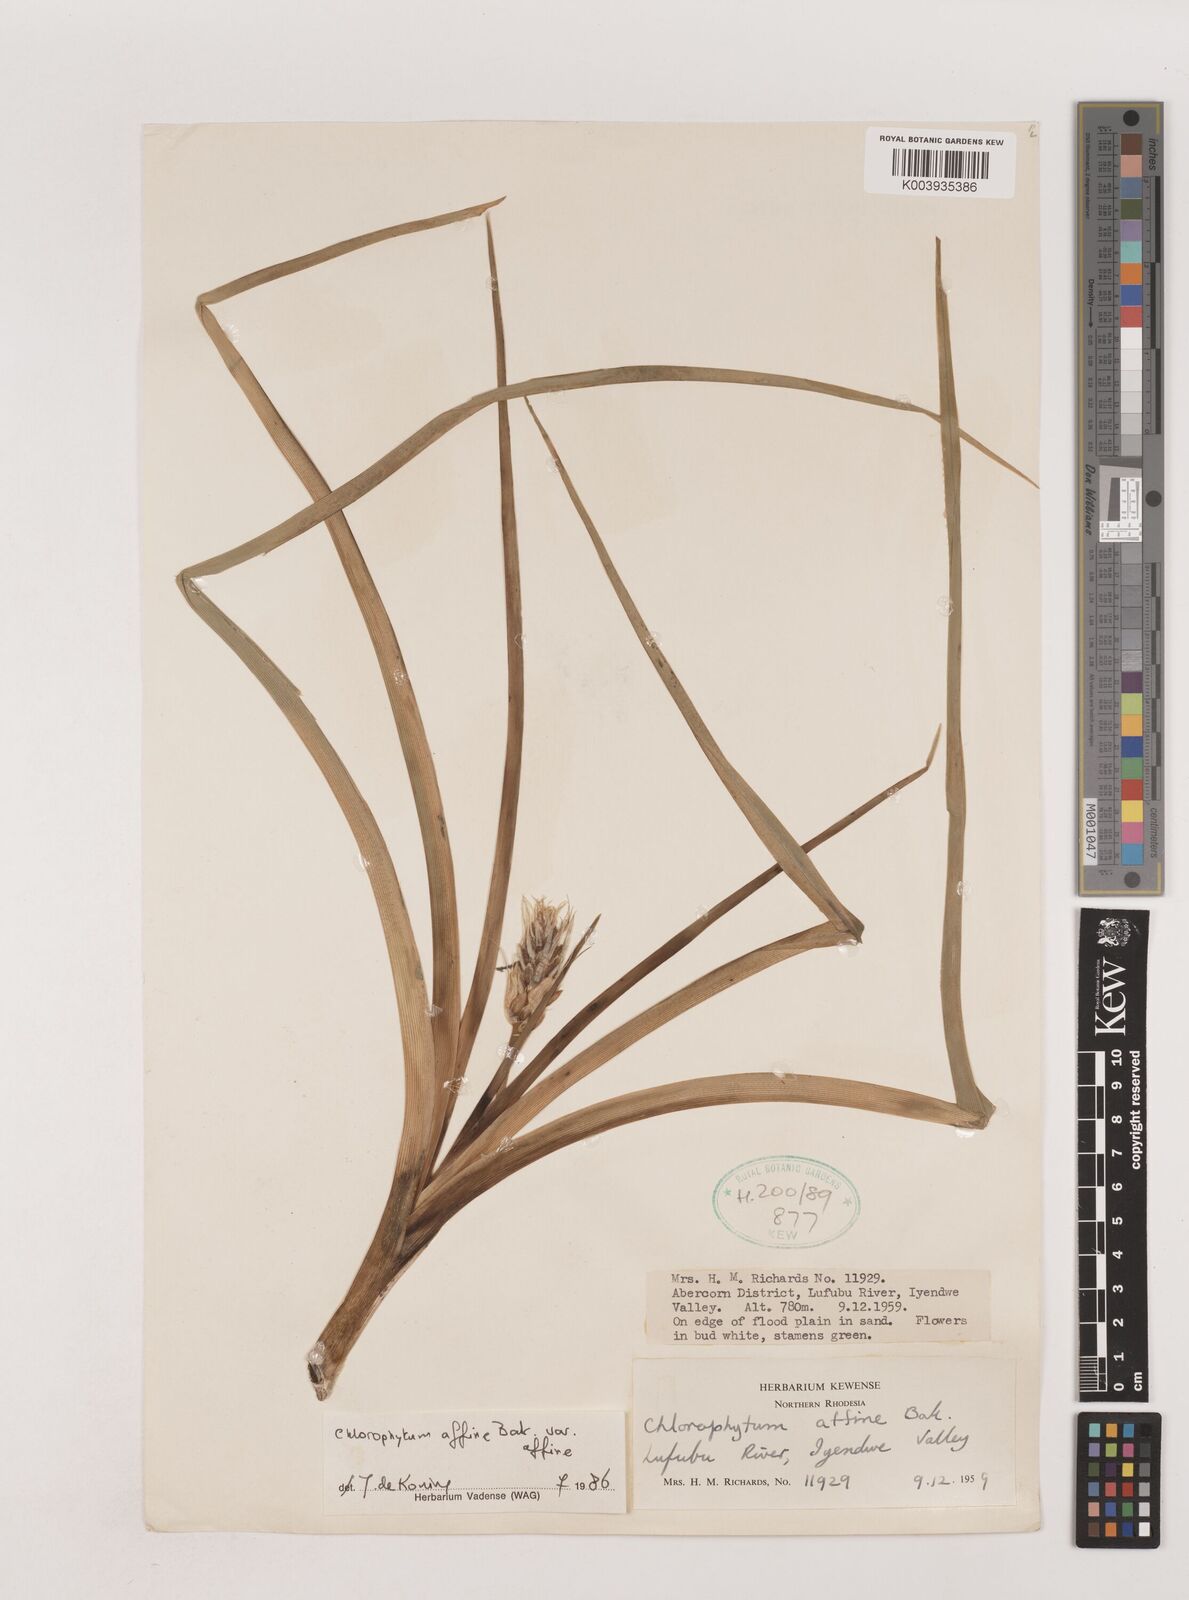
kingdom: Plantae
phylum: Tracheophyta
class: Liliopsida
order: Asparagales
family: Asparagaceae
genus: Chlorophytum
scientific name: Chlorophytum affine
